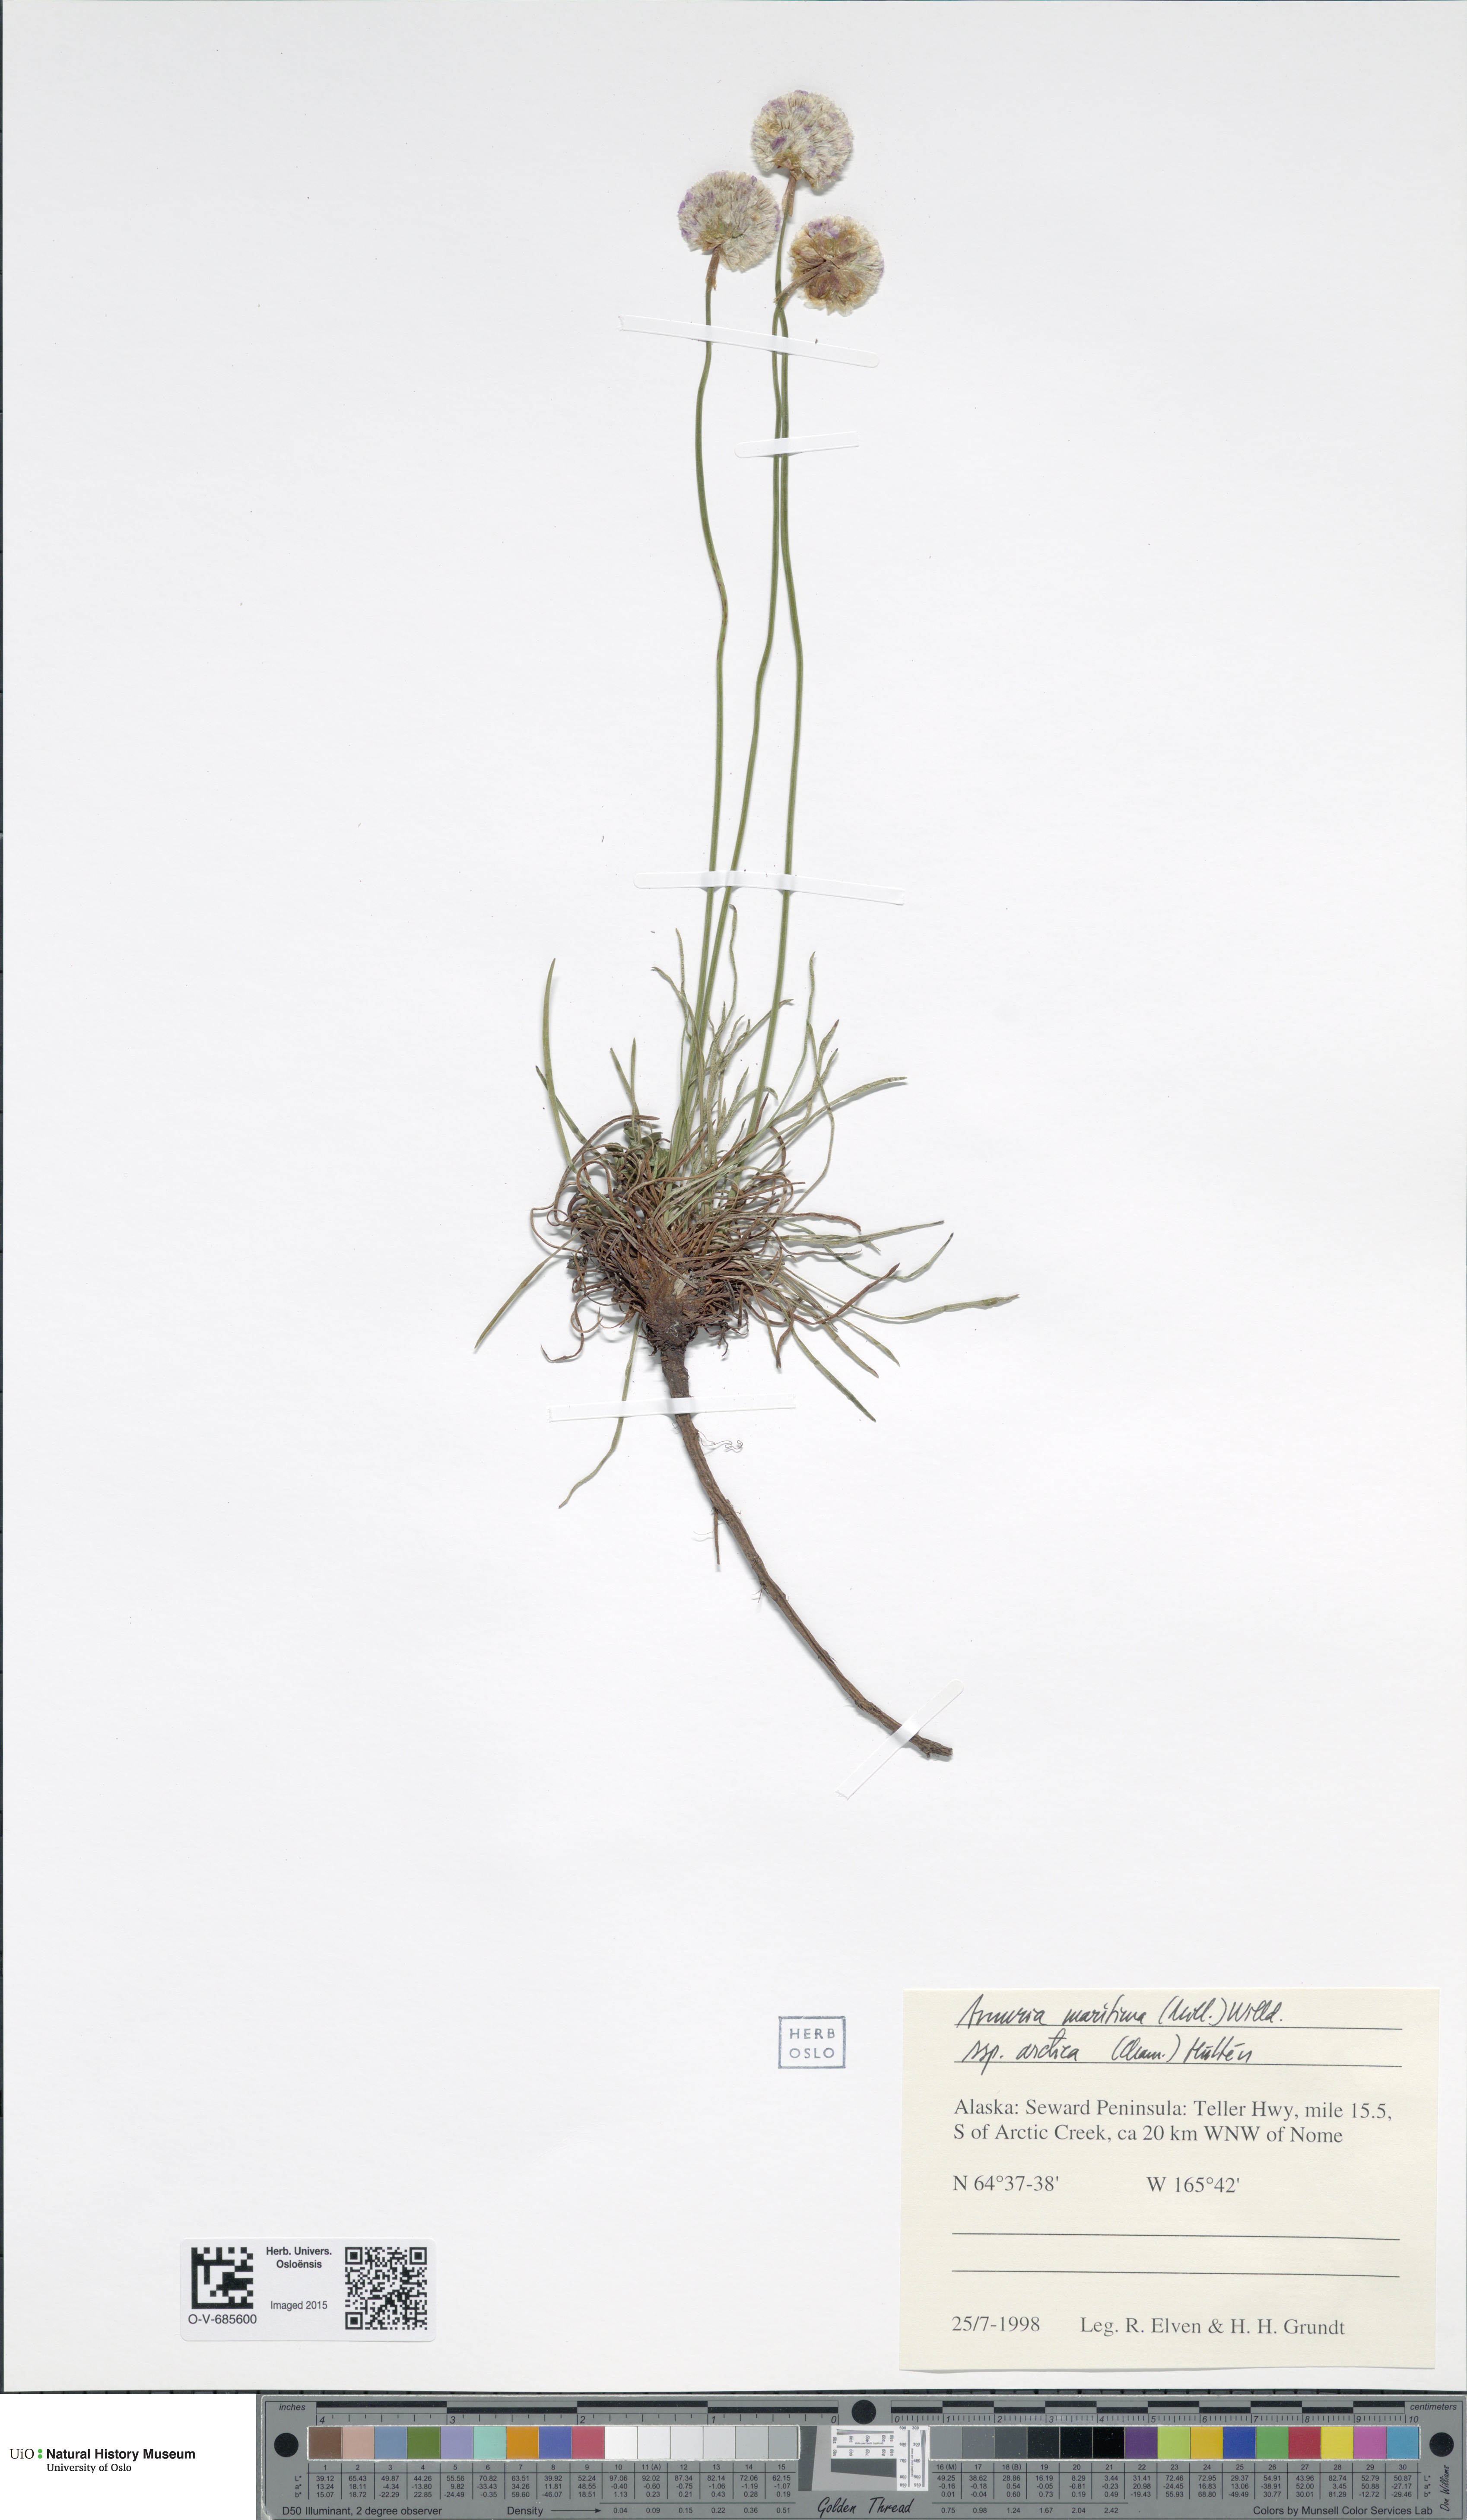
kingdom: Plantae
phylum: Tracheophyta
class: Magnoliopsida
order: Caryophyllales
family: Plumbaginaceae
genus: Armeria
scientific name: Armeria maritima
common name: Thrift
